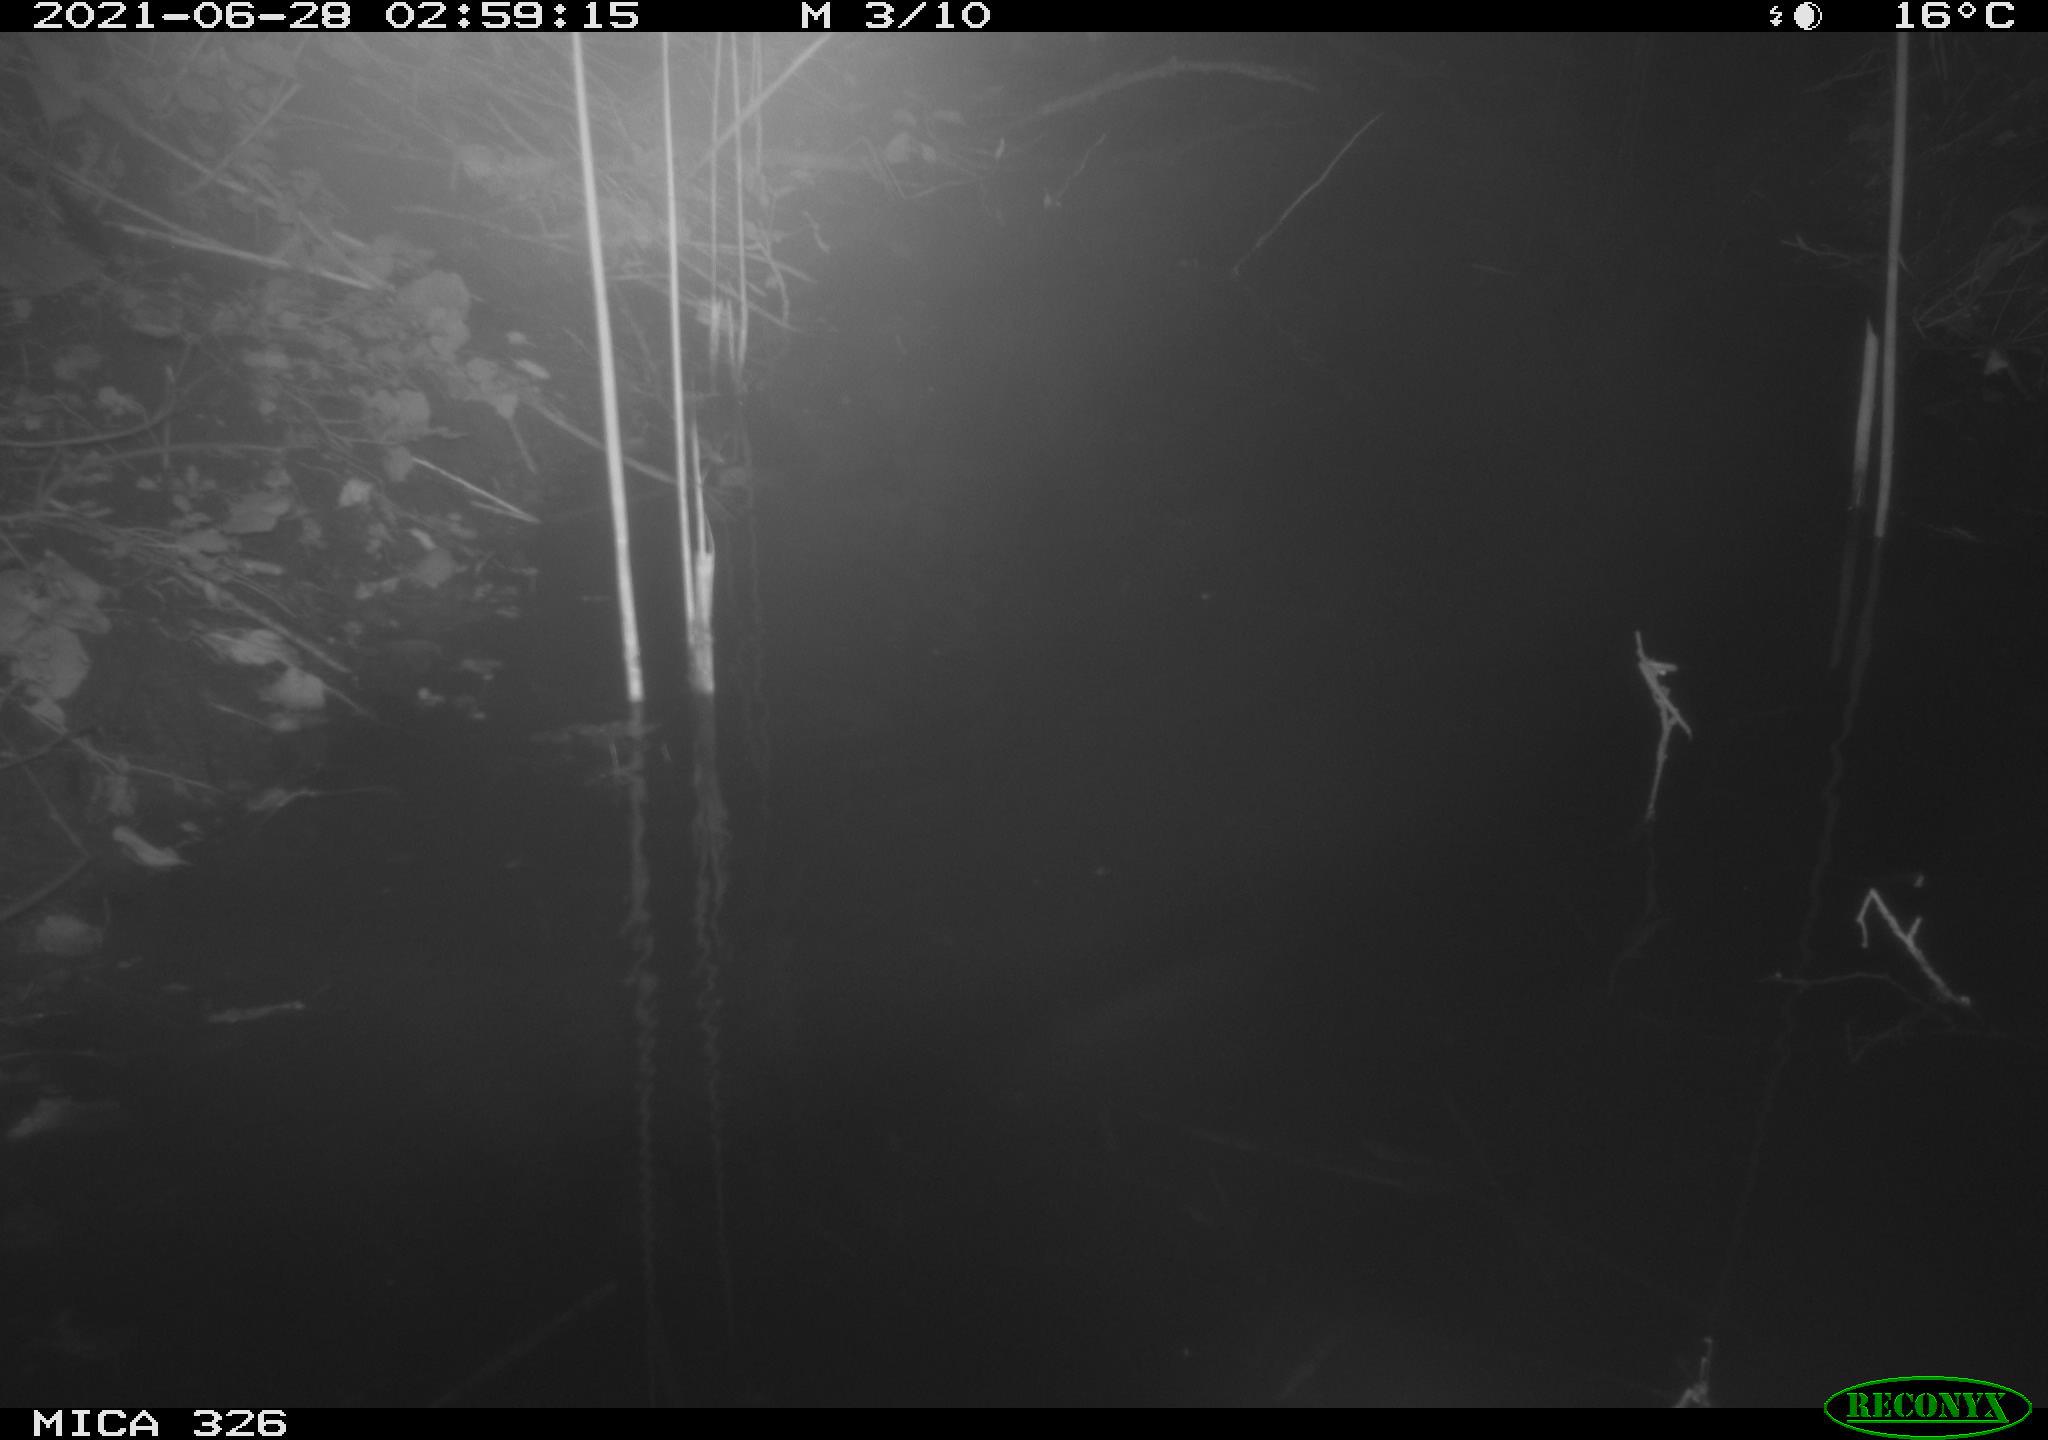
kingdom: Animalia
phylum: Chordata
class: Mammalia
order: Rodentia
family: Muridae
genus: Rattus
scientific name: Rattus norvegicus
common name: Brown rat
